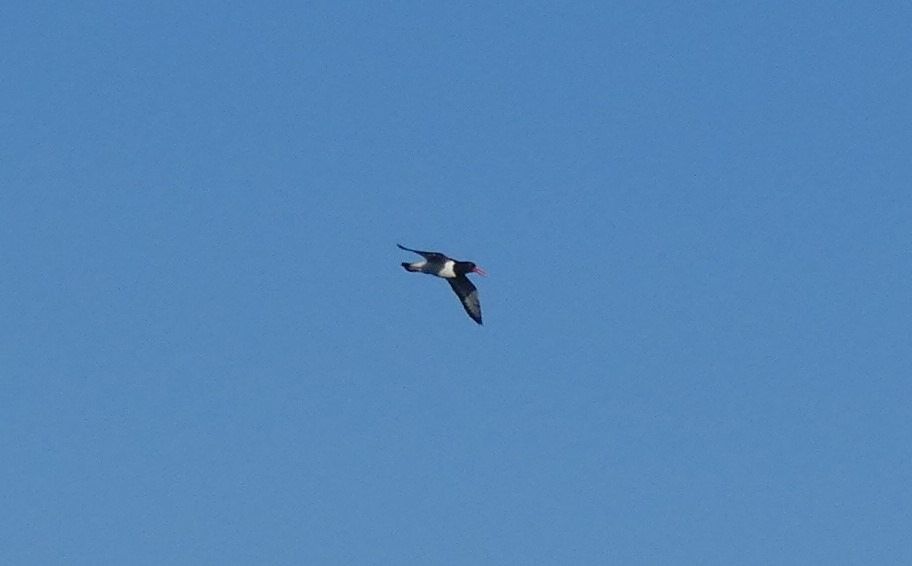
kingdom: Animalia
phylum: Chordata
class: Aves
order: Charadriiformes
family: Haematopodidae
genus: Haematopus
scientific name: Haematopus ostralegus
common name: Strandskade
